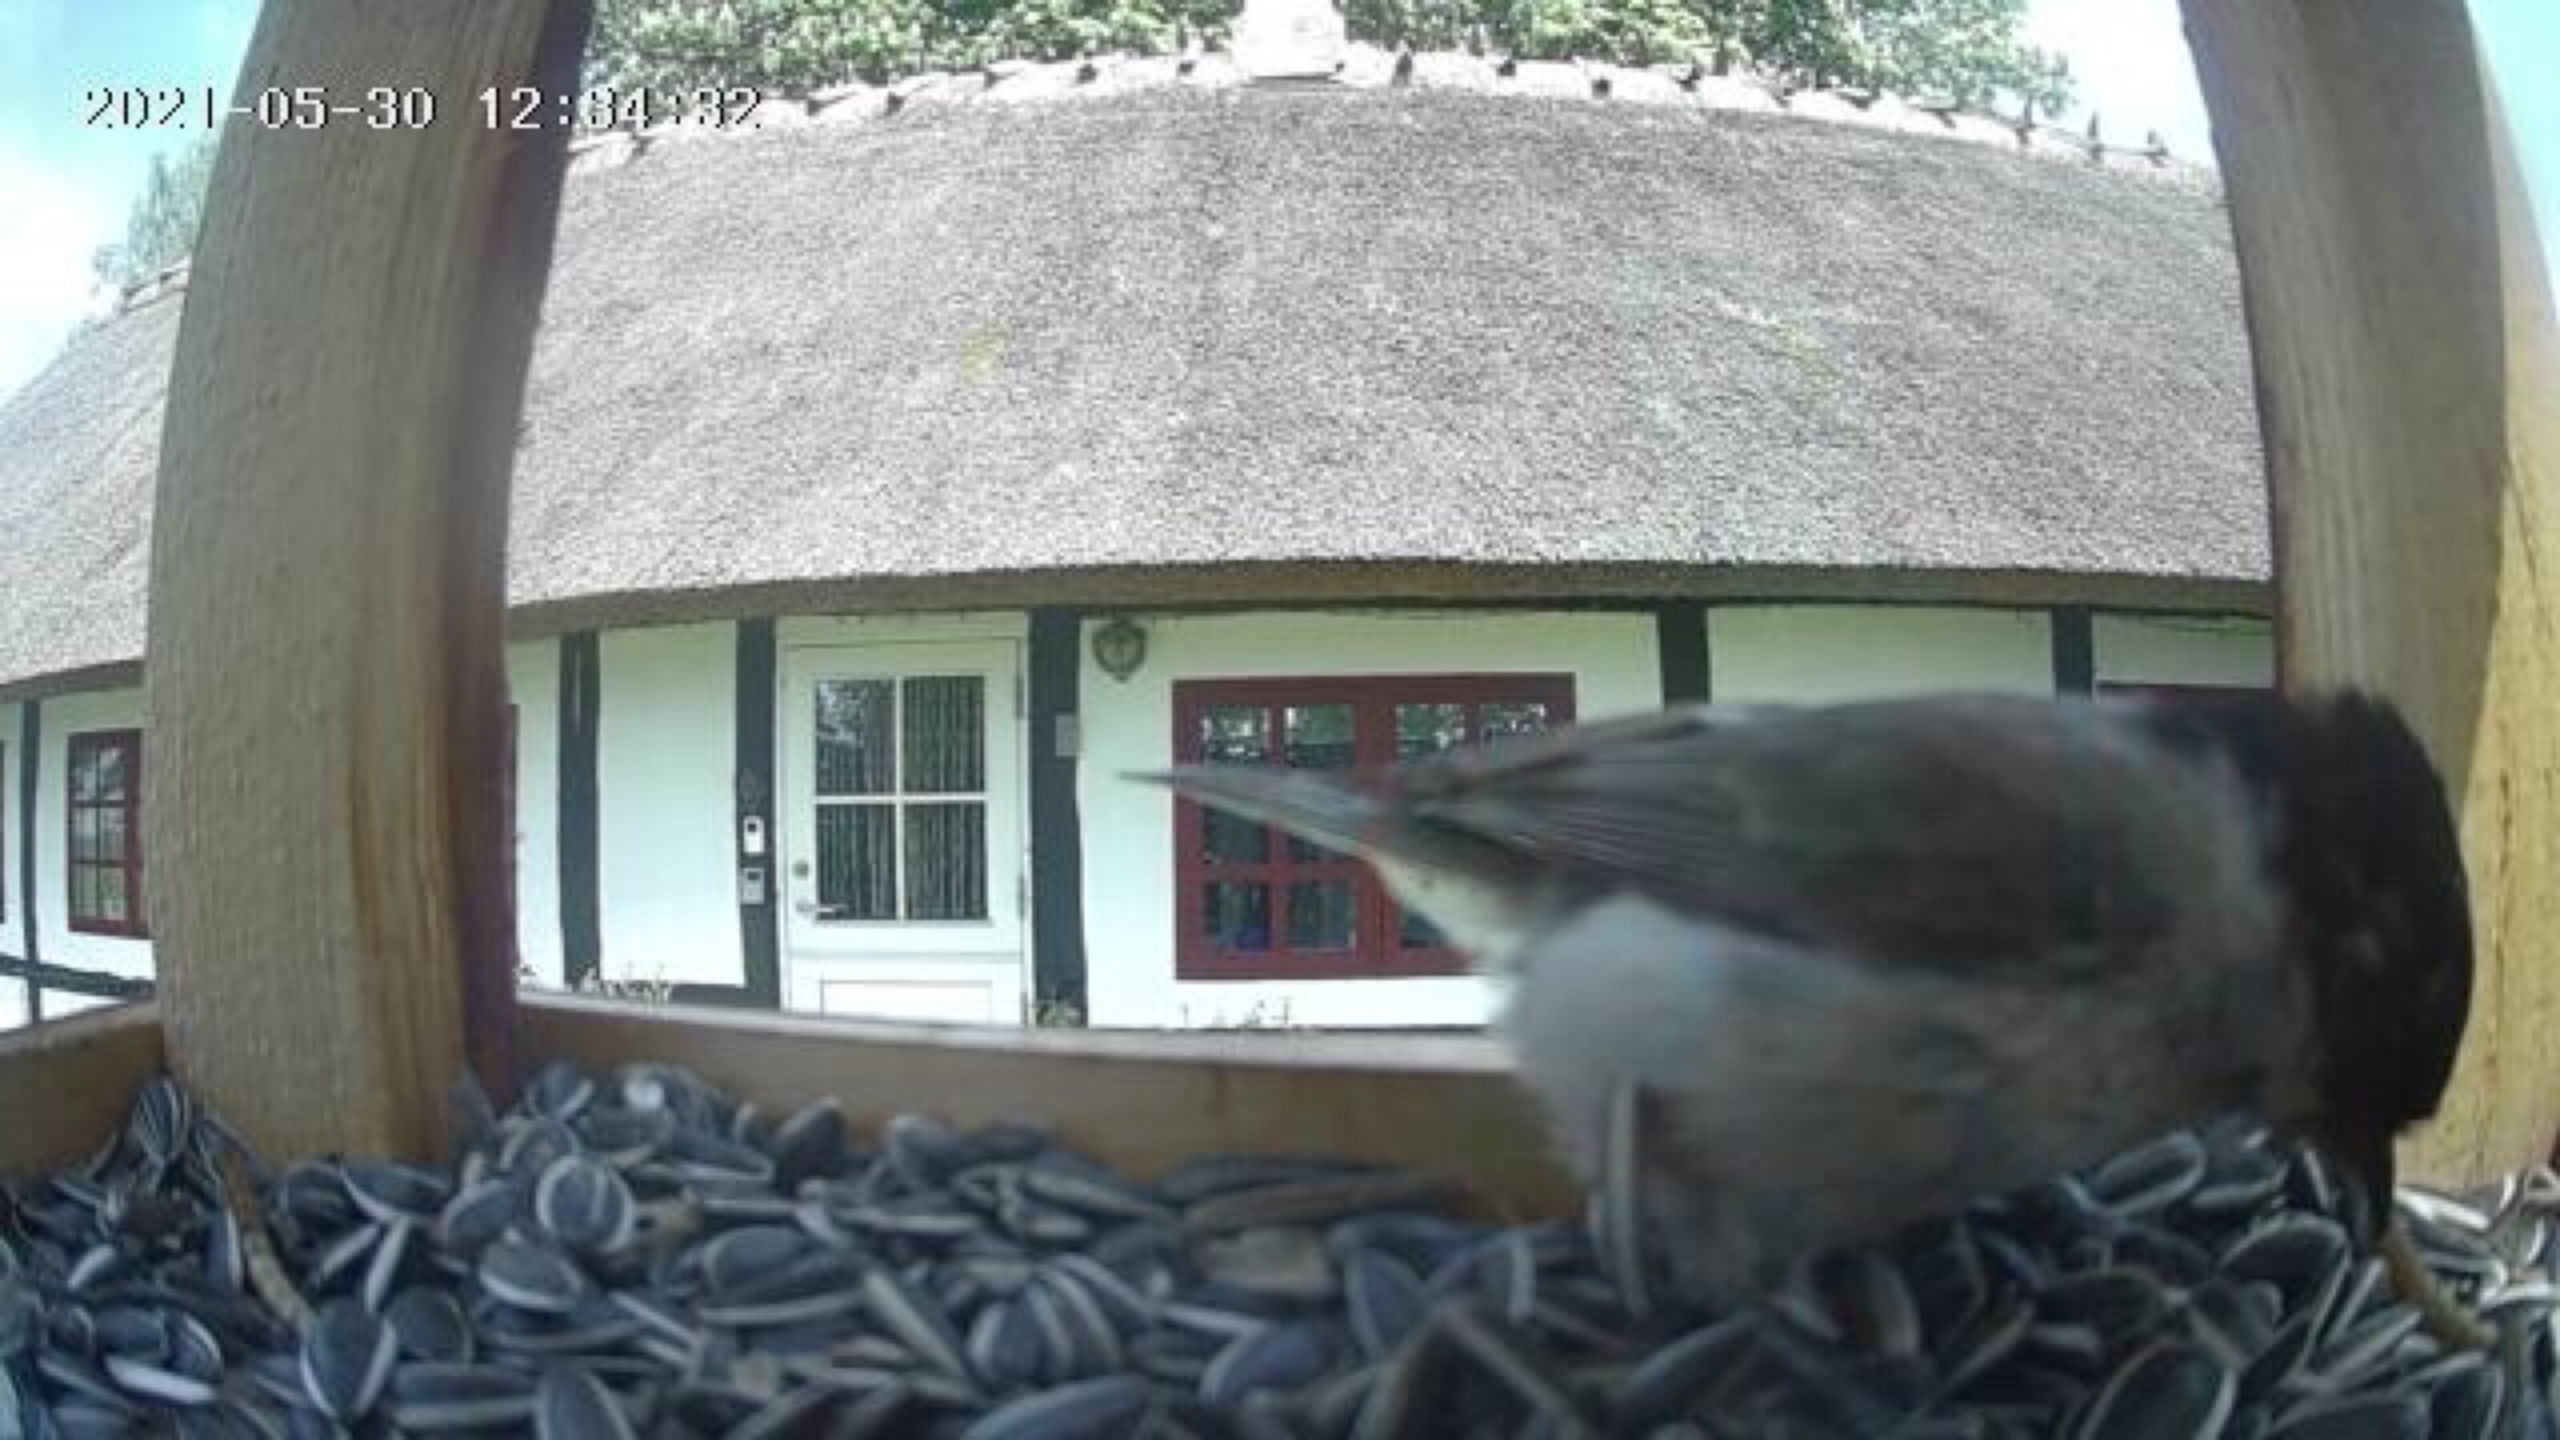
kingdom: Animalia
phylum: Chordata
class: Aves
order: Passeriformes
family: Paridae
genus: Poecile
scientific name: Poecile palustris
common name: Sumpmejse
